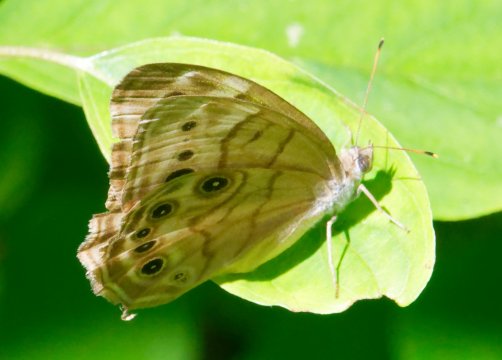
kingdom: Animalia
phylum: Arthropoda
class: Insecta
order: Lepidoptera
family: Nymphalidae
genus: Lethe
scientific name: Lethe anthedon
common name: Northern Pearly-Eye
